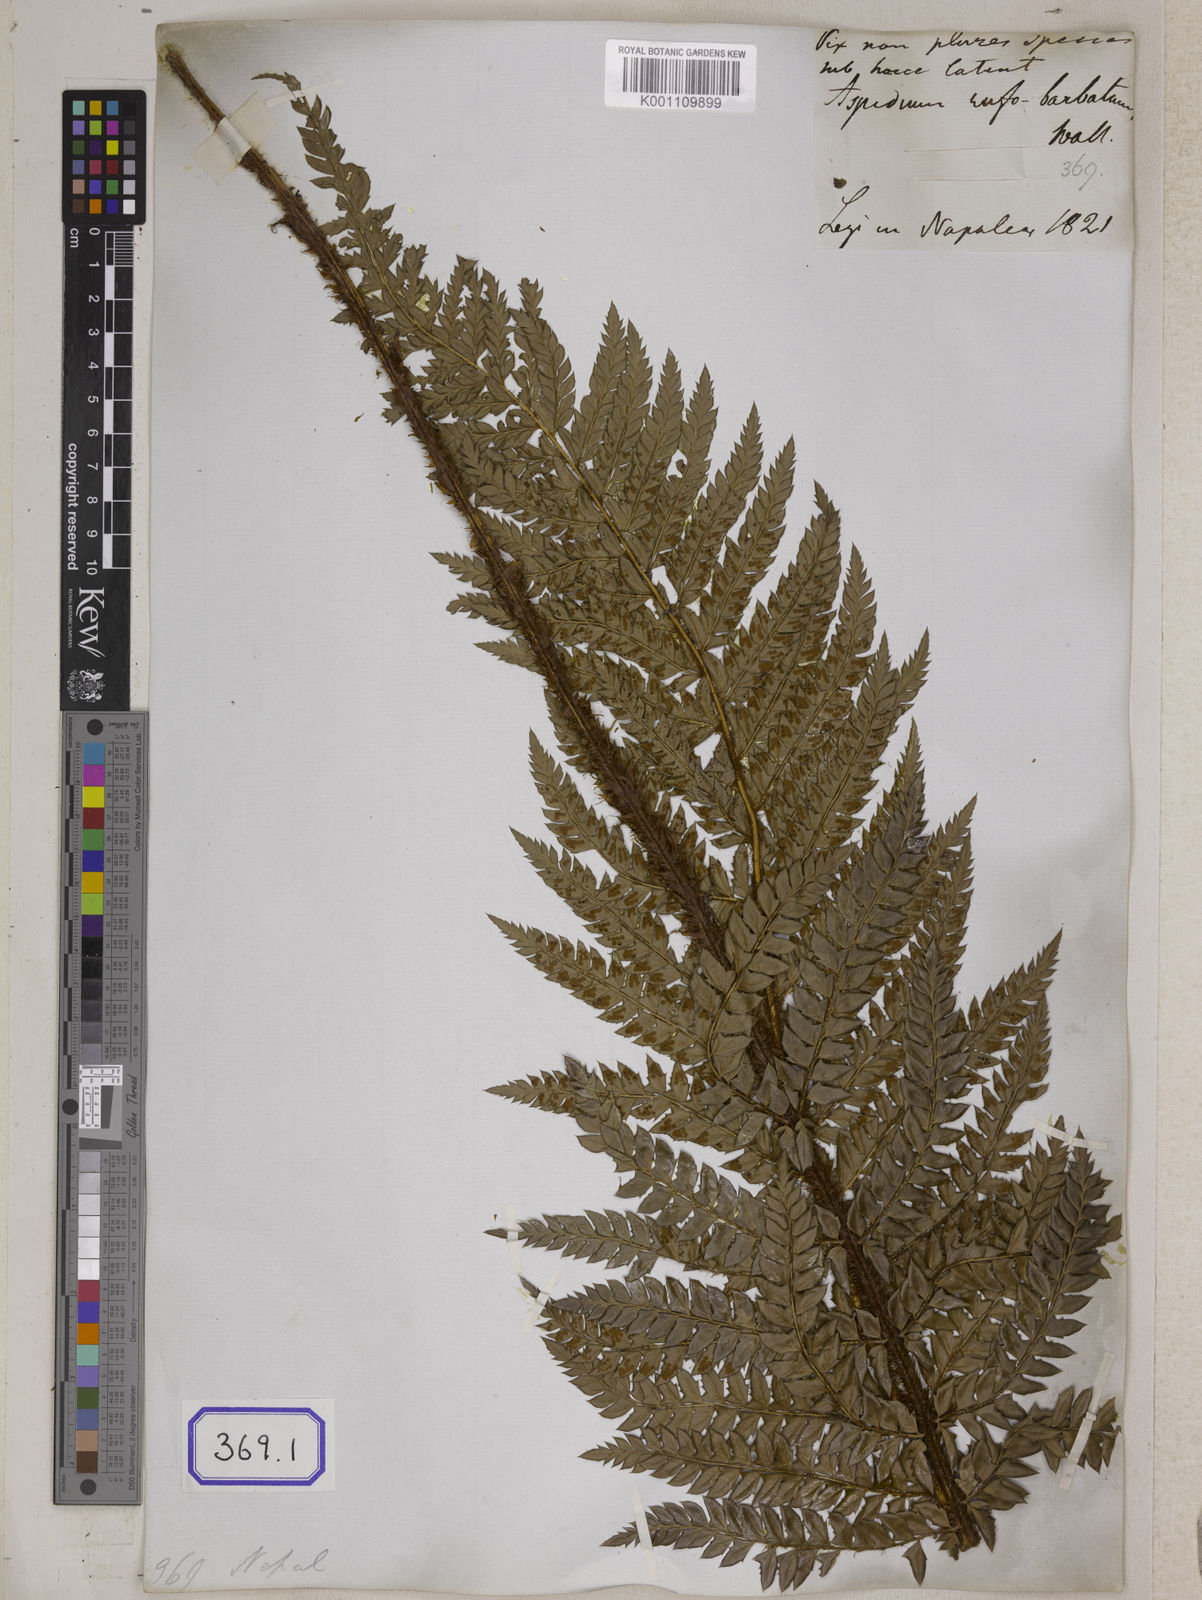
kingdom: Plantae
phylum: Tracheophyta
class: Polypodiopsida
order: Polypodiales
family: Dryopteridaceae
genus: Polystichum
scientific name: Polystichum squarrosum
